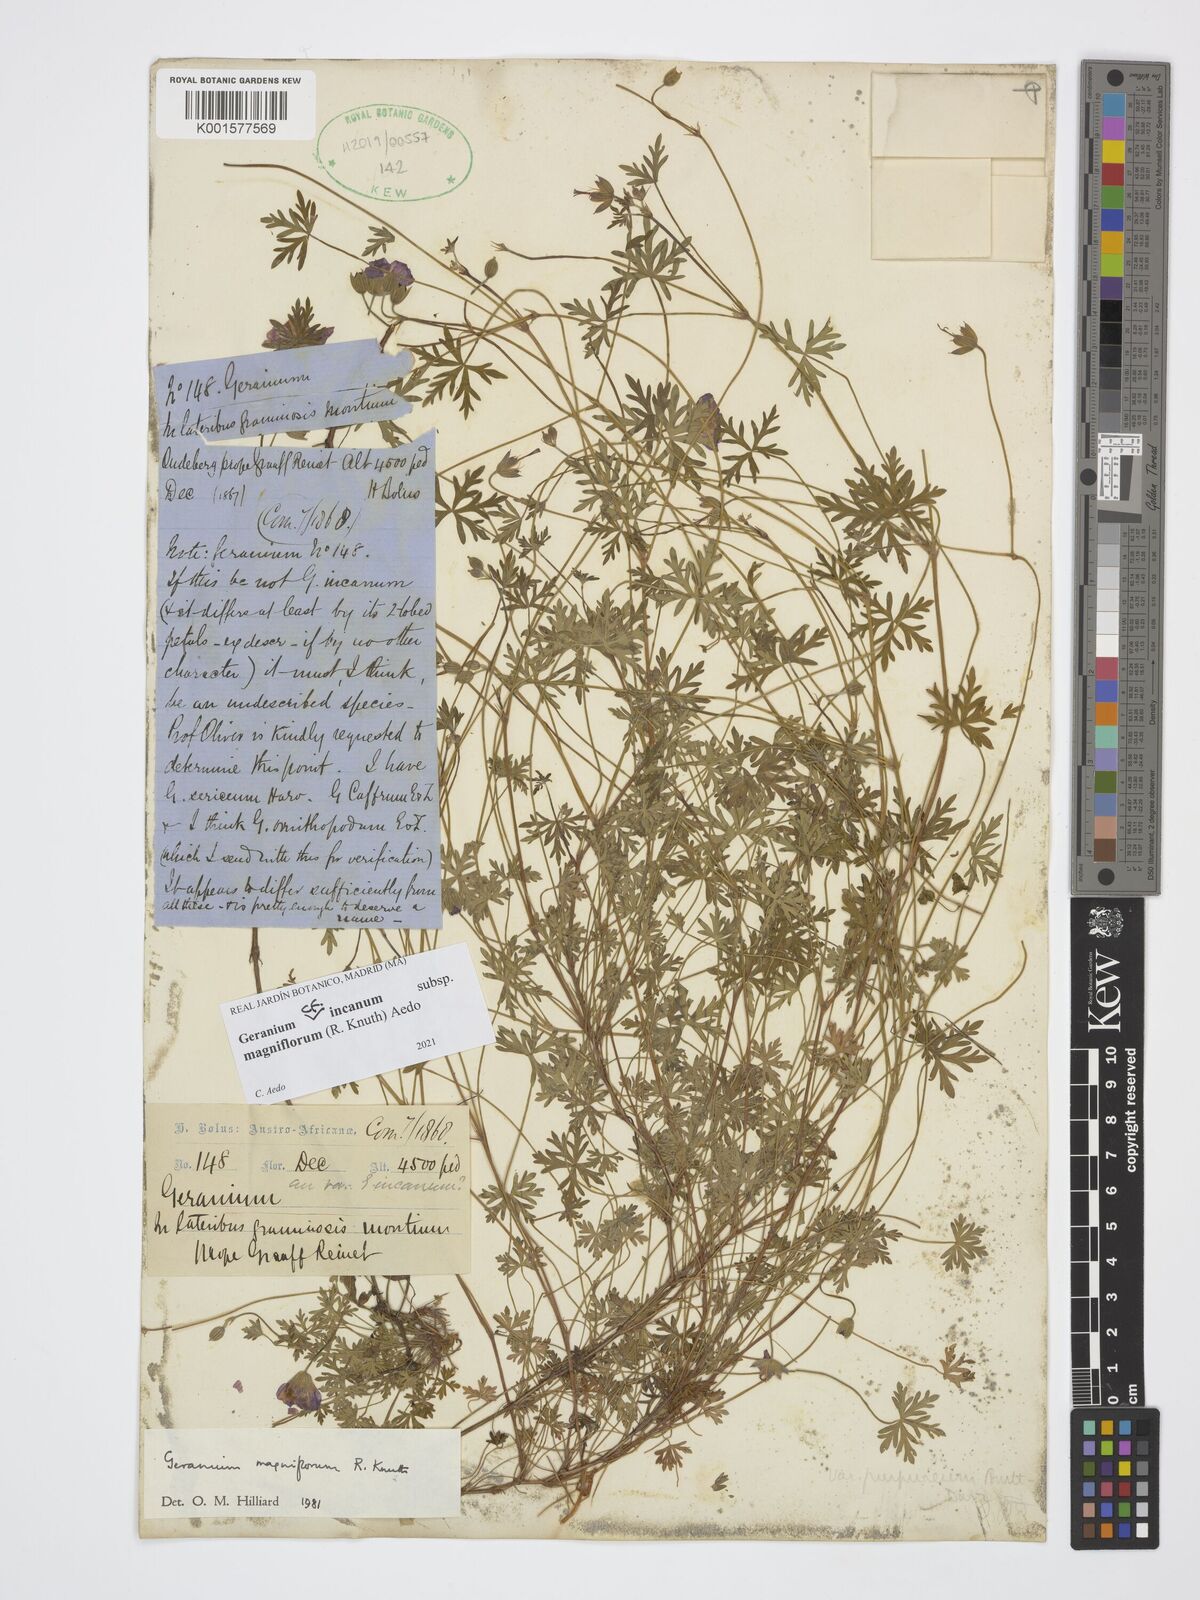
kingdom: Plantae
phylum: Tracheophyta
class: Magnoliopsida
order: Geraniales
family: Geraniaceae
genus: Geranium
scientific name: Geranium incanum
